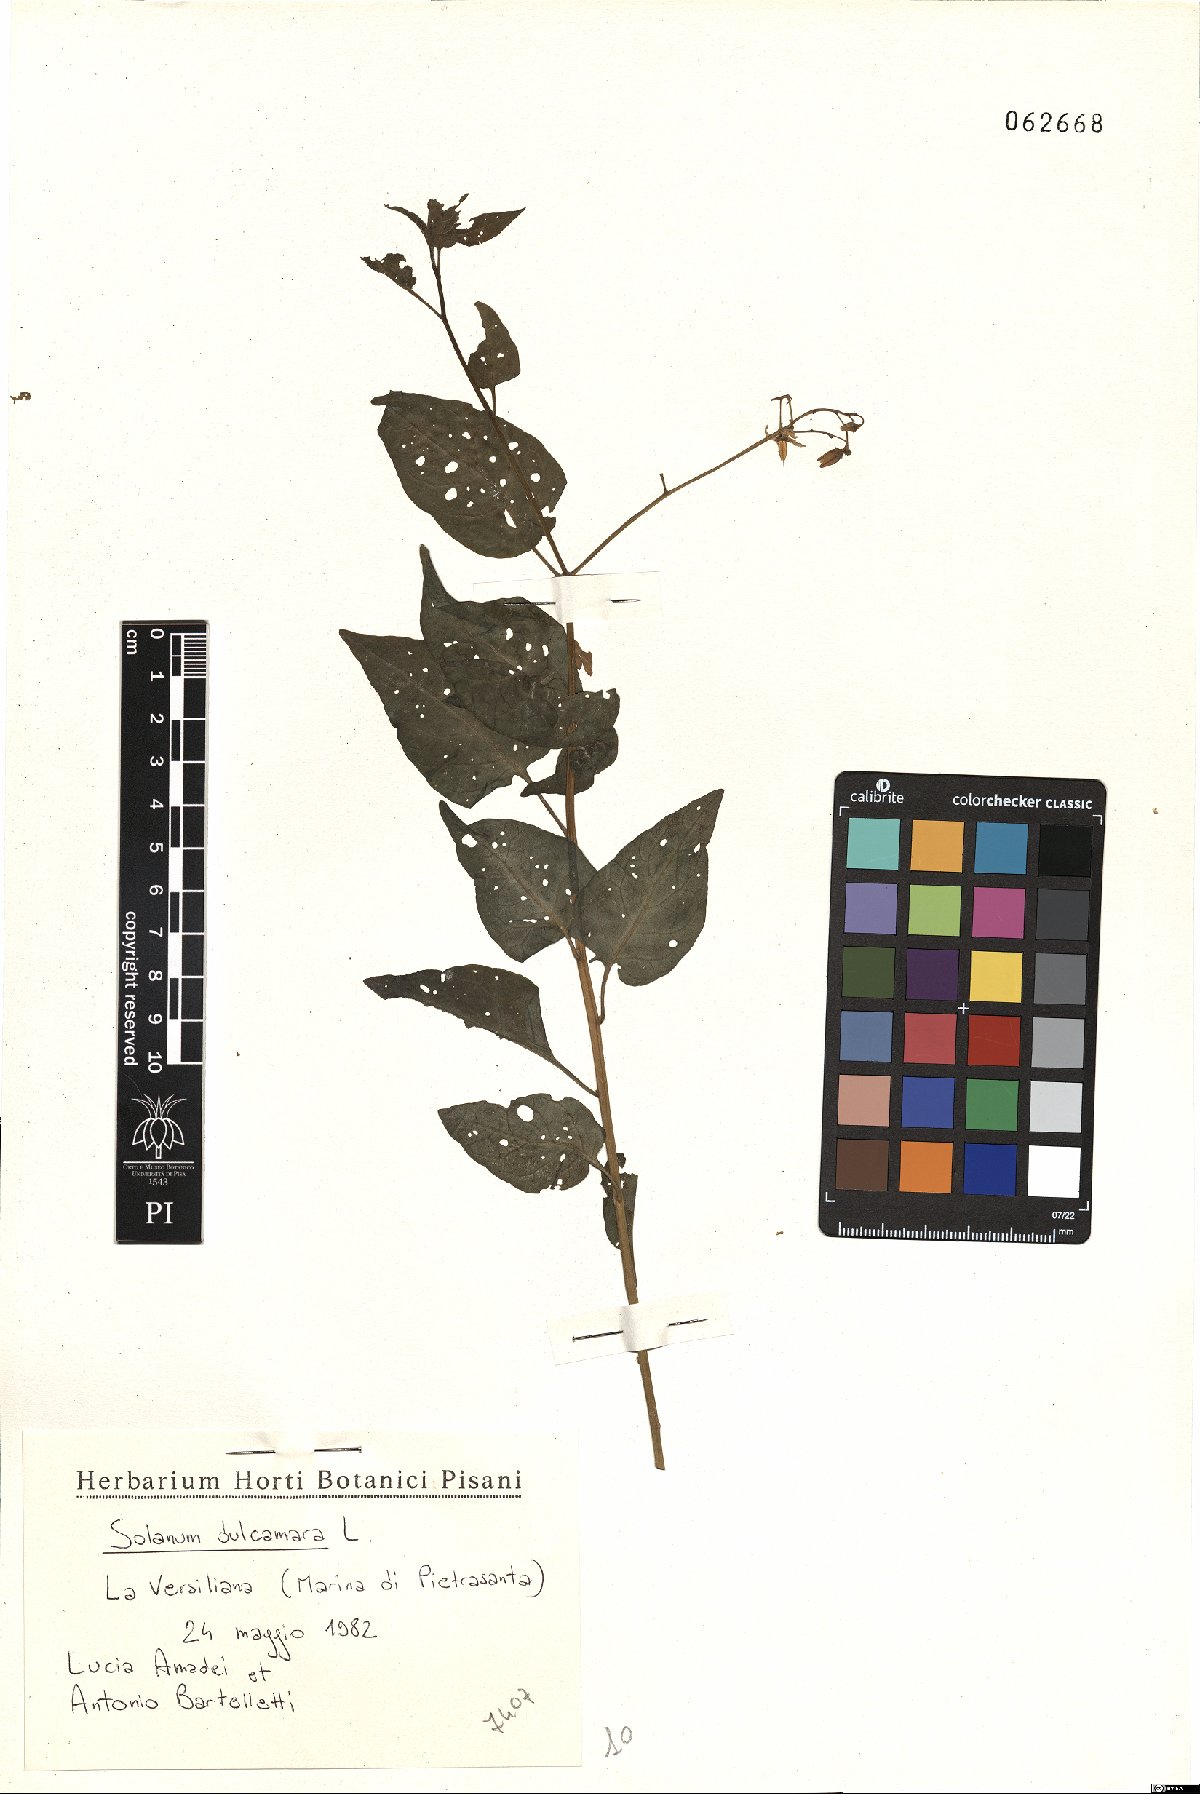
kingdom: Plantae
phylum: Tracheophyta
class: Magnoliopsida
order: Solanales
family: Solanaceae
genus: Solanum
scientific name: Solanum dulcamara
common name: Climbing nightshade
